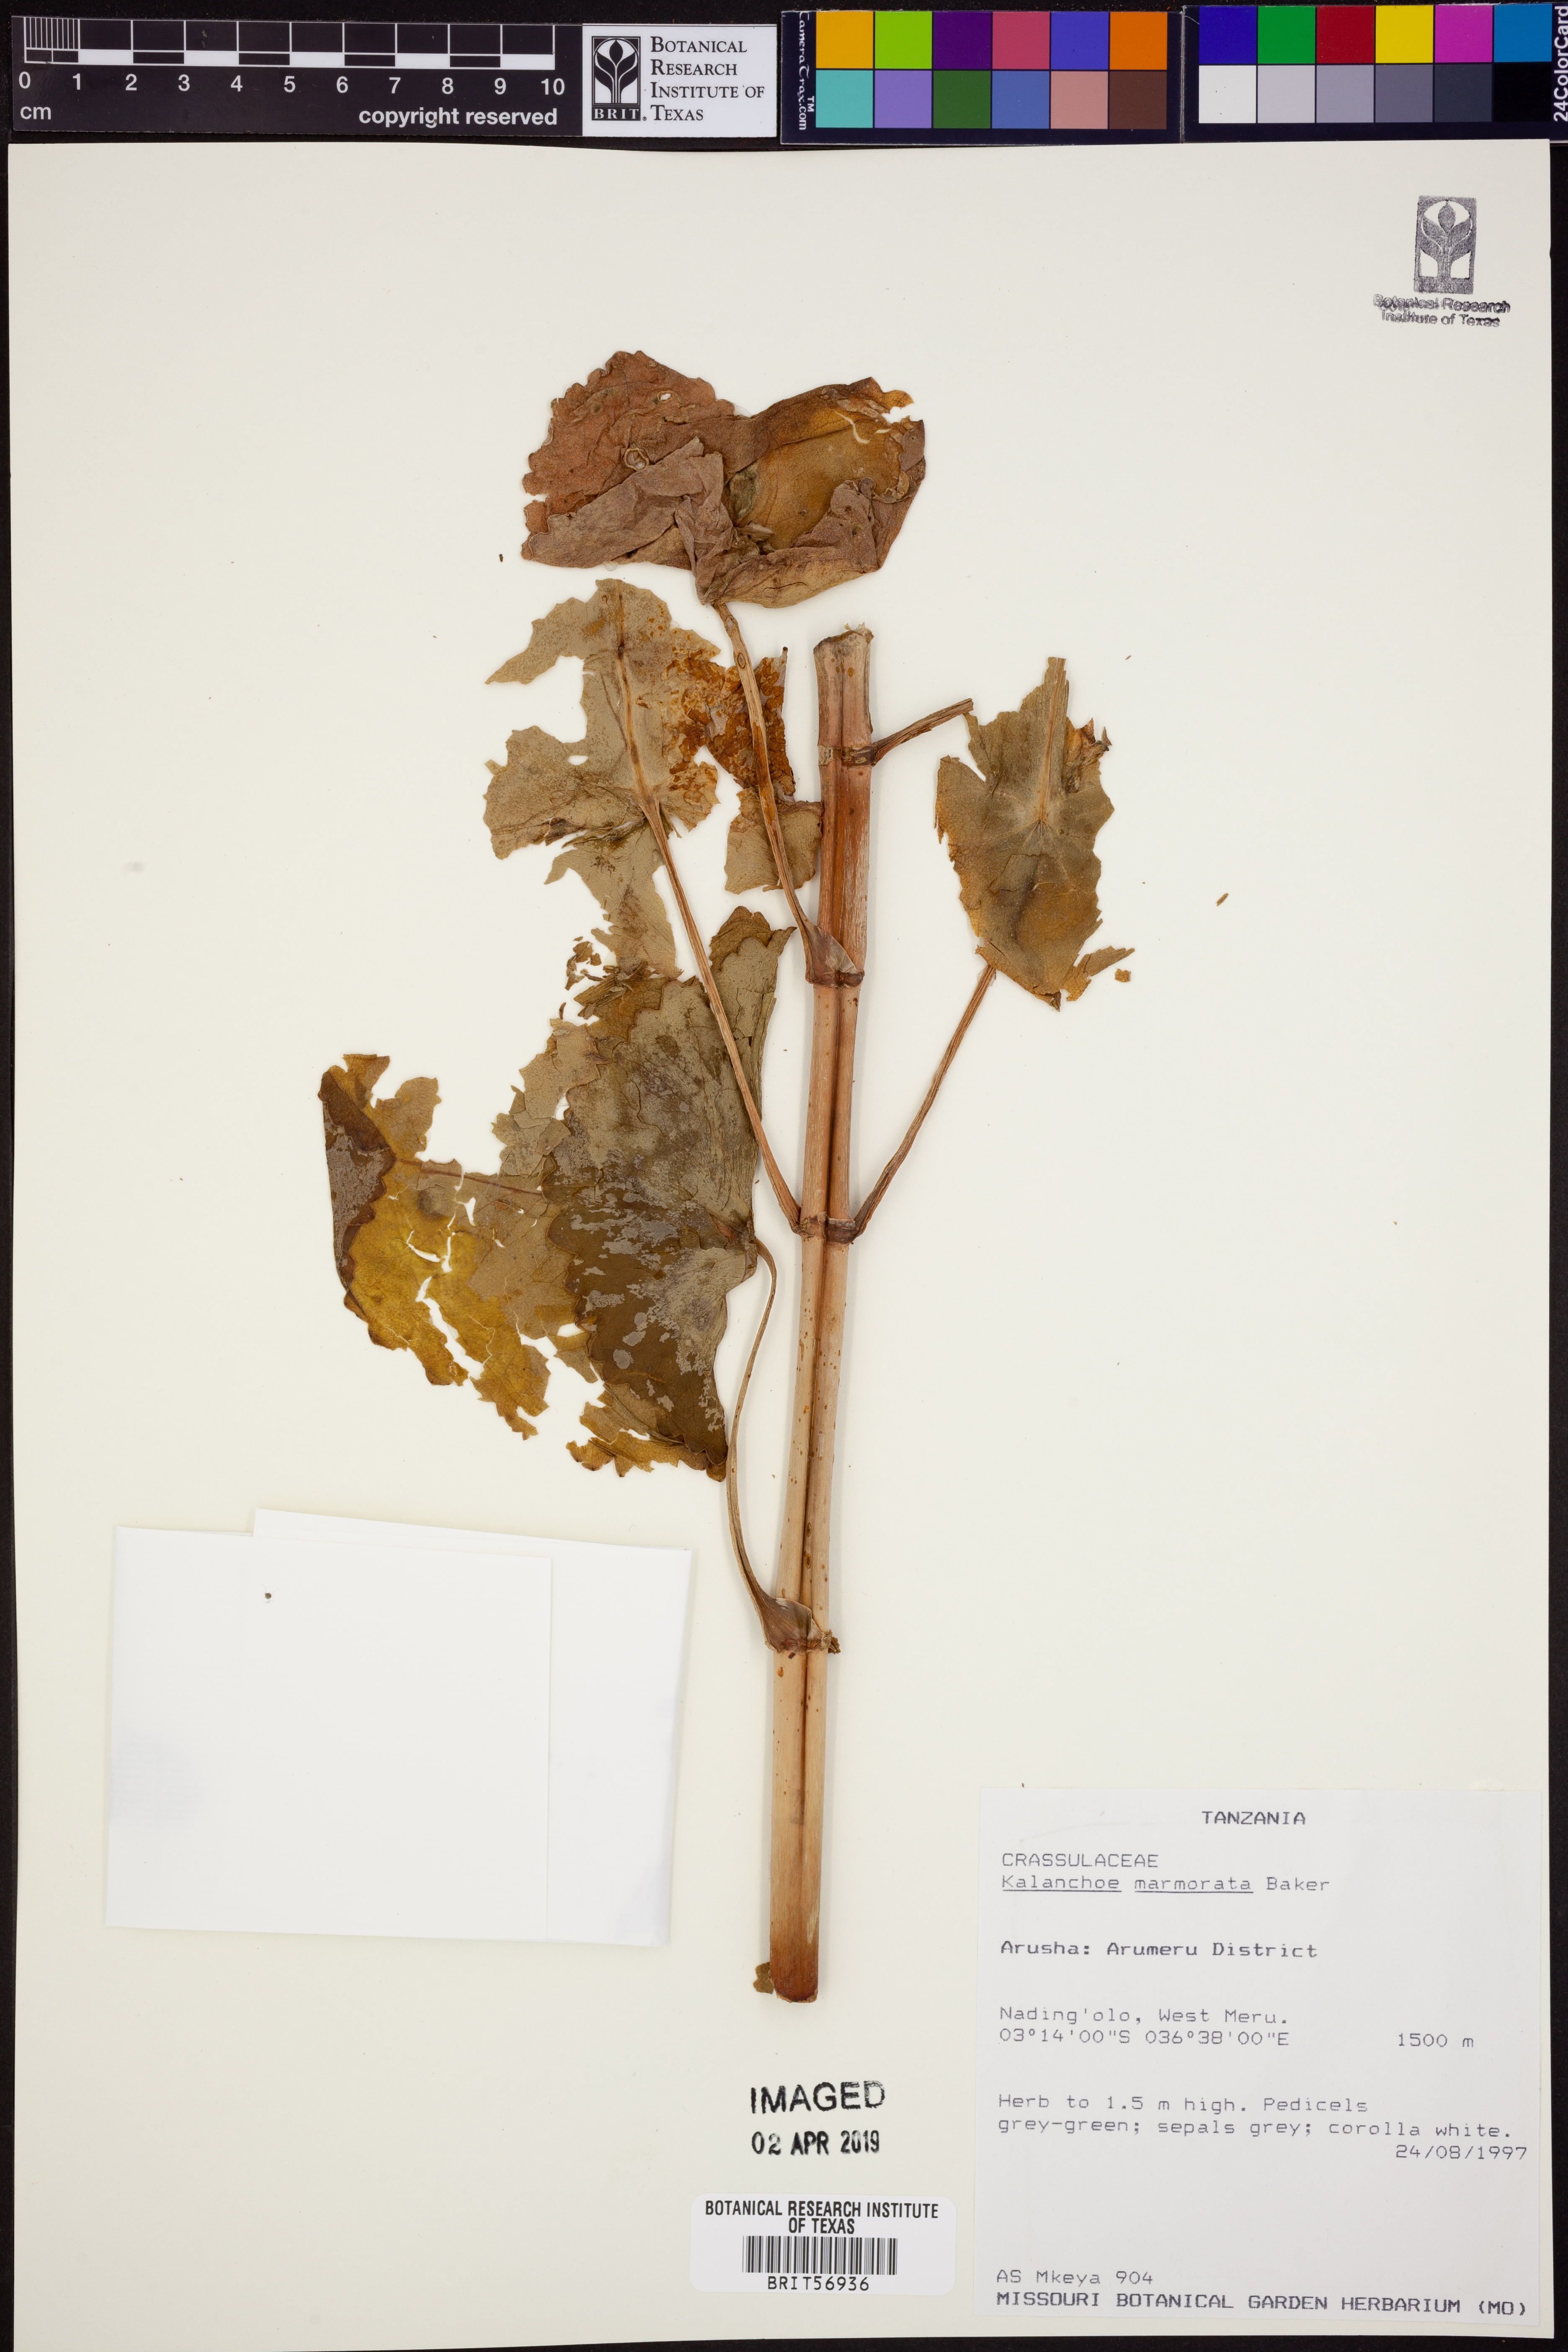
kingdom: Plantae
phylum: Tracheophyta
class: Magnoliopsida
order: Saxifragales
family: Crassulaceae
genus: Kalanchoe
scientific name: Kalanchoe marmorata
